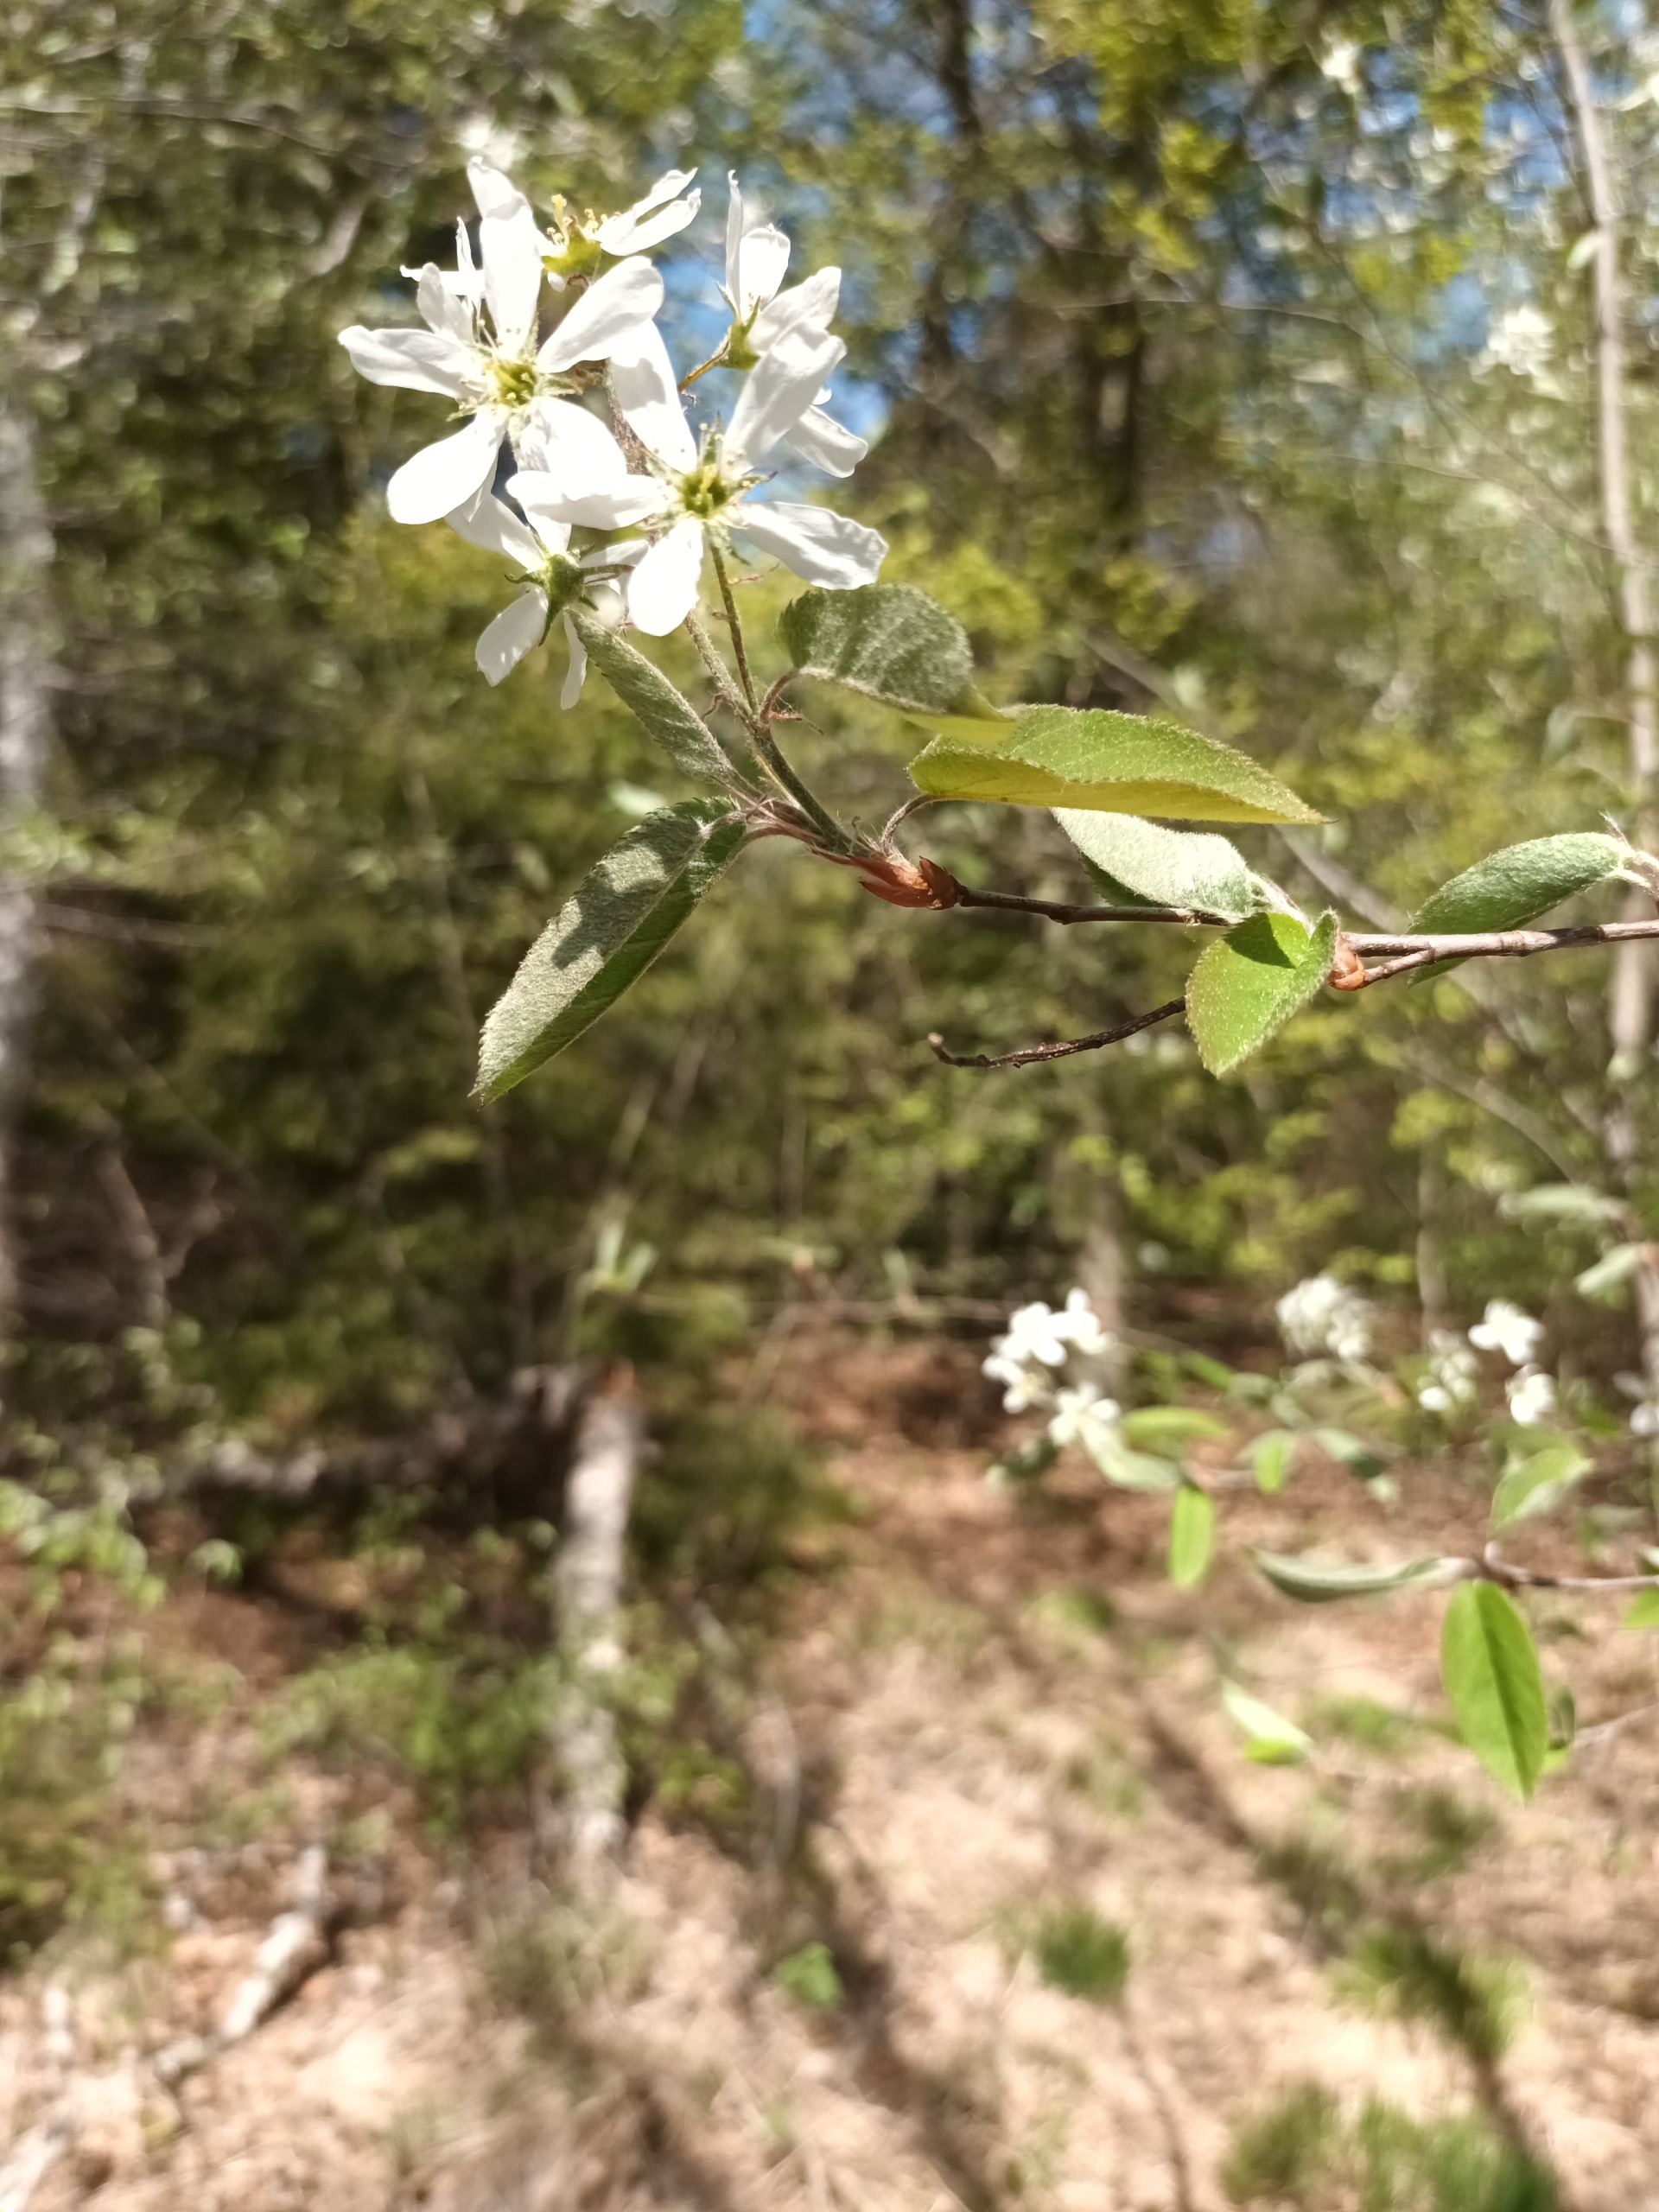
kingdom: Plantae
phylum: Tracheophyta
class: Magnoliopsida
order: Rosales
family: Rosaceae
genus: Amelanchier
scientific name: Amelanchier lamarckii
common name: Bærmispel
